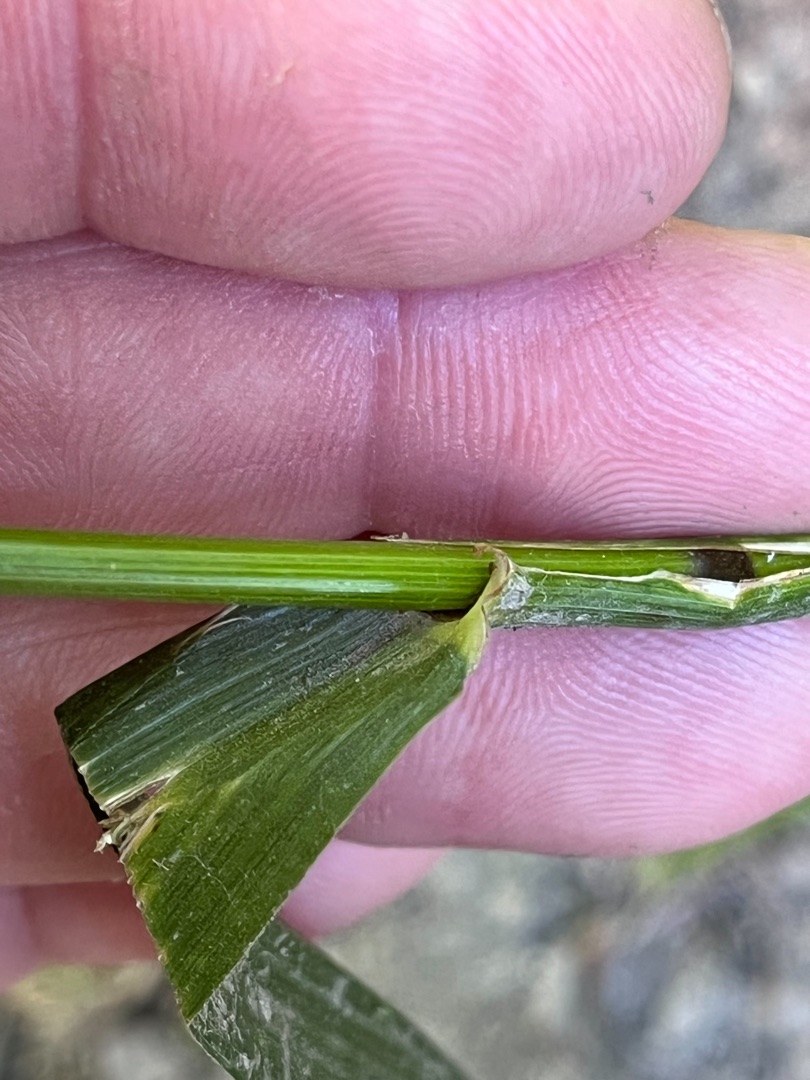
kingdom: Plantae
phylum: Tracheophyta
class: Liliopsida
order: Poales
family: Poaceae
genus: Lolium
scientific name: Lolium giganteum
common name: Kæmpe-svingel
